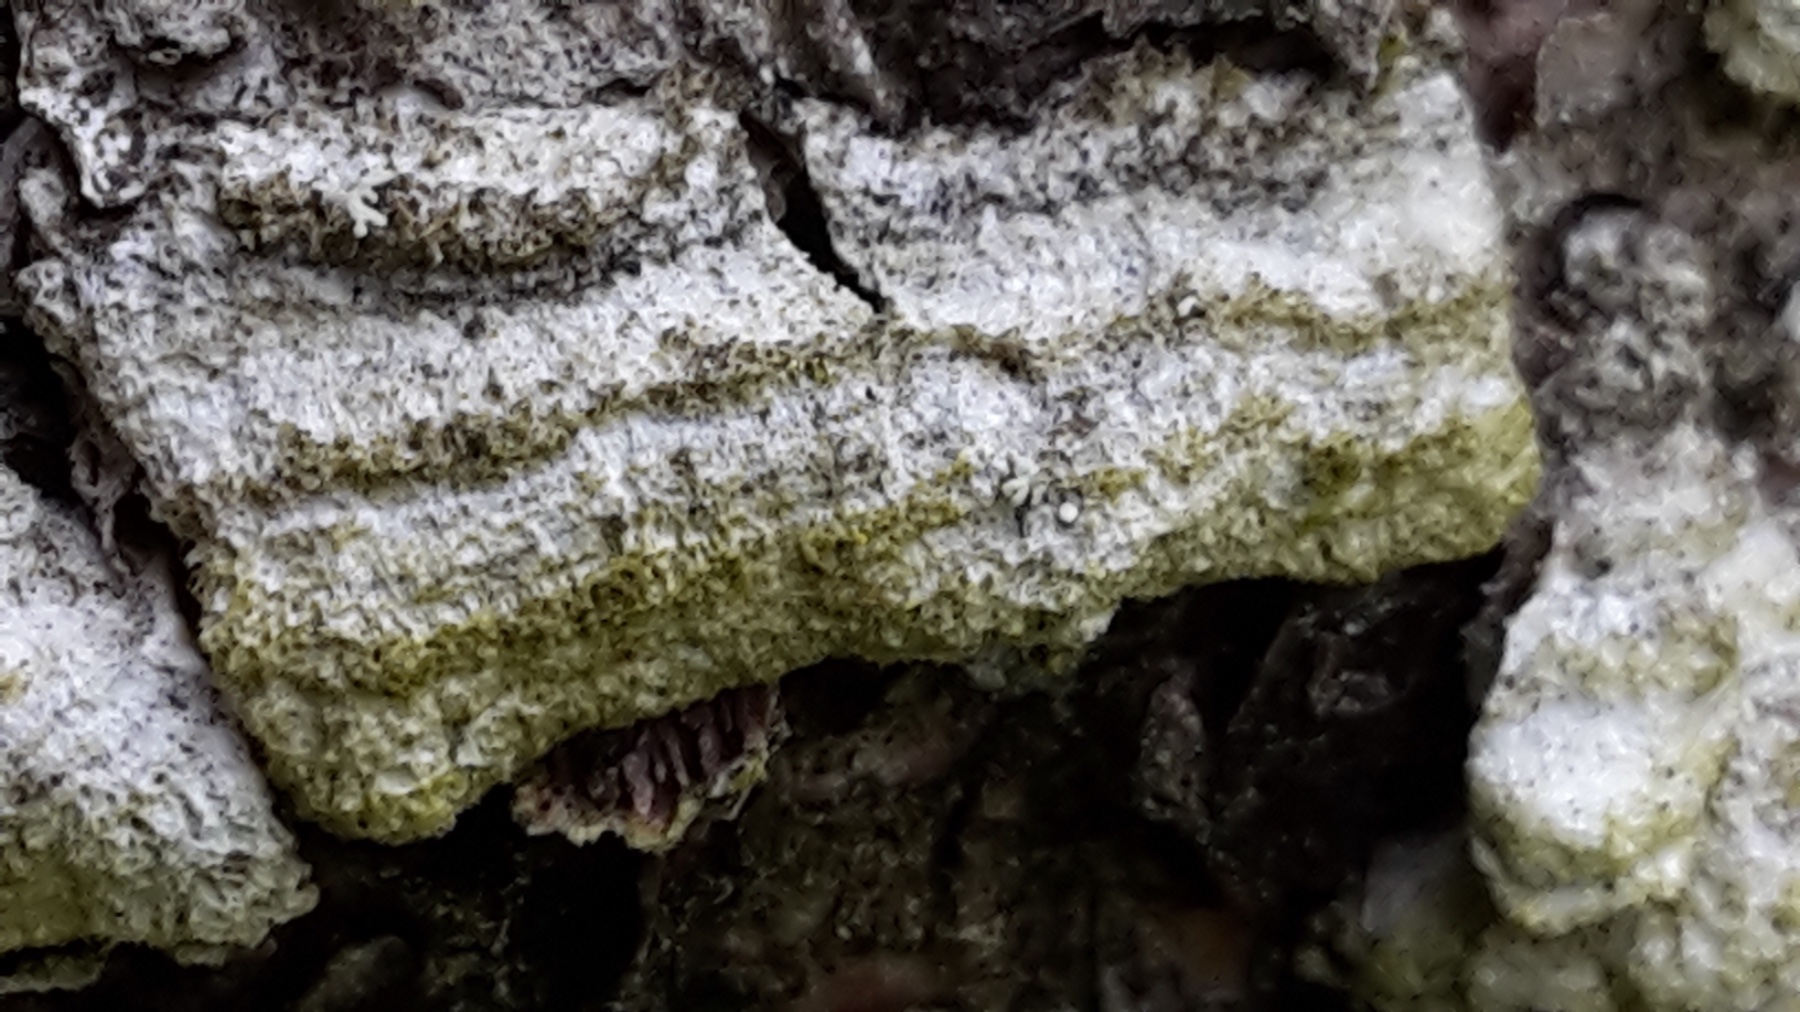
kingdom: Fungi
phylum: Basidiomycota
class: Agaricomycetes
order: Hymenochaetales
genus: Trichaptum
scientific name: Trichaptum fuscoviolaceum
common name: tandet violporesvamp
